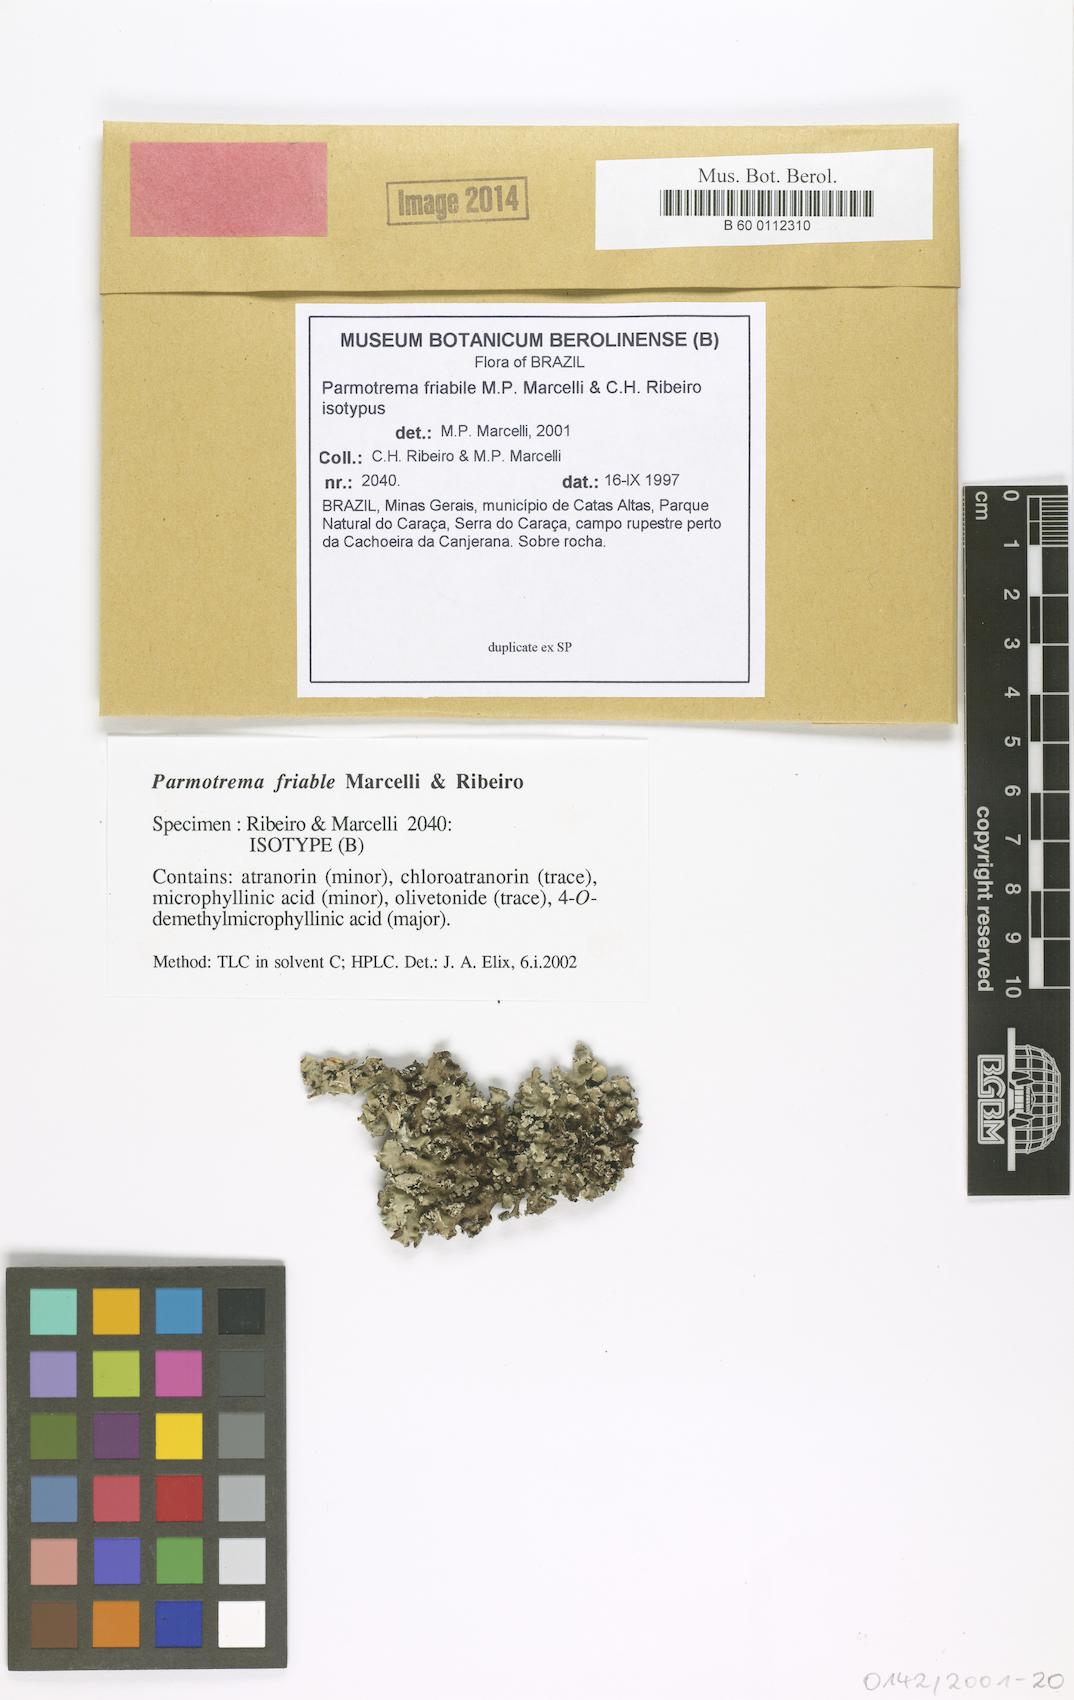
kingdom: Fungi
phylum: Ascomycota
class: Lecanoromycetes
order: Lecanorales
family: Parmeliaceae
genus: Parmotrema
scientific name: Parmotrema friabile
